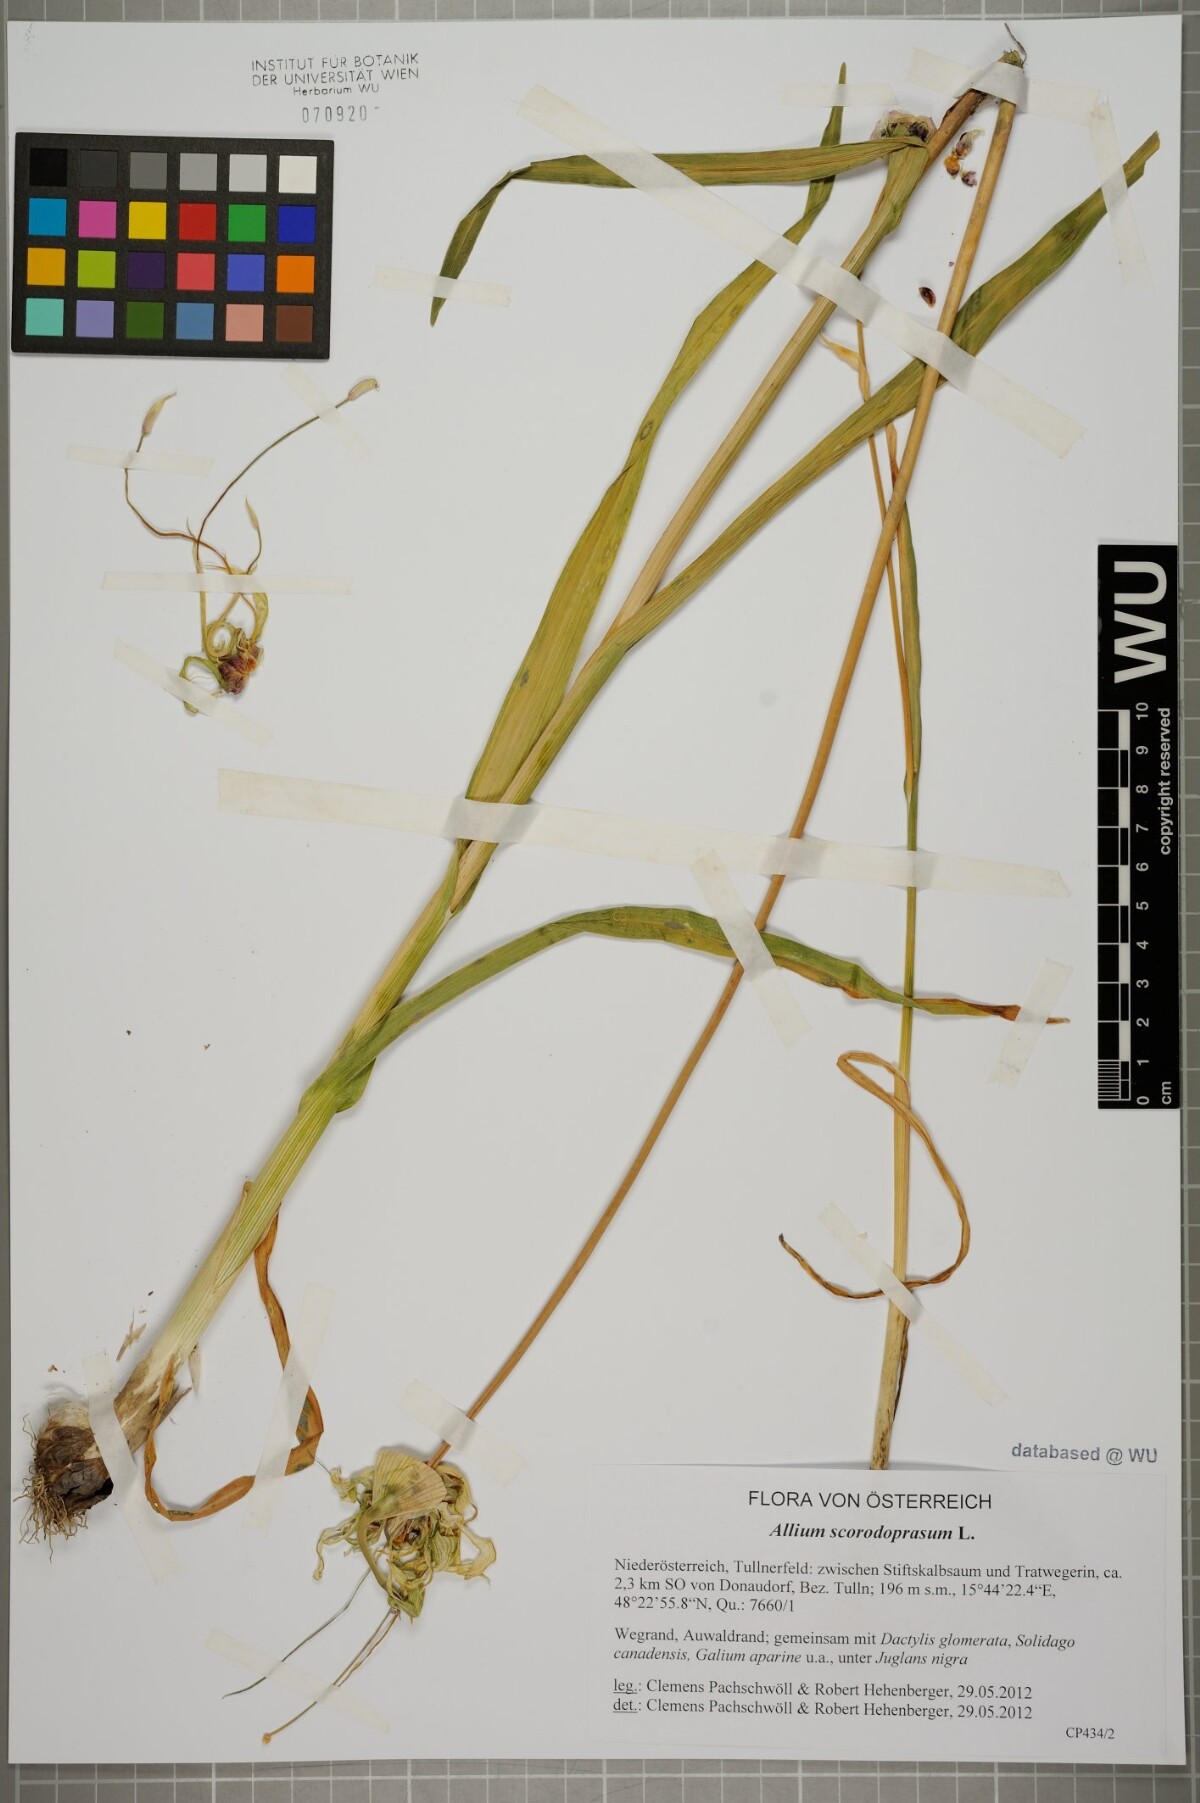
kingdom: Plantae
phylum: Tracheophyta
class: Liliopsida
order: Asparagales
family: Amaryllidaceae
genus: Allium
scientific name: Allium scorodoprasum
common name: Sand leek
